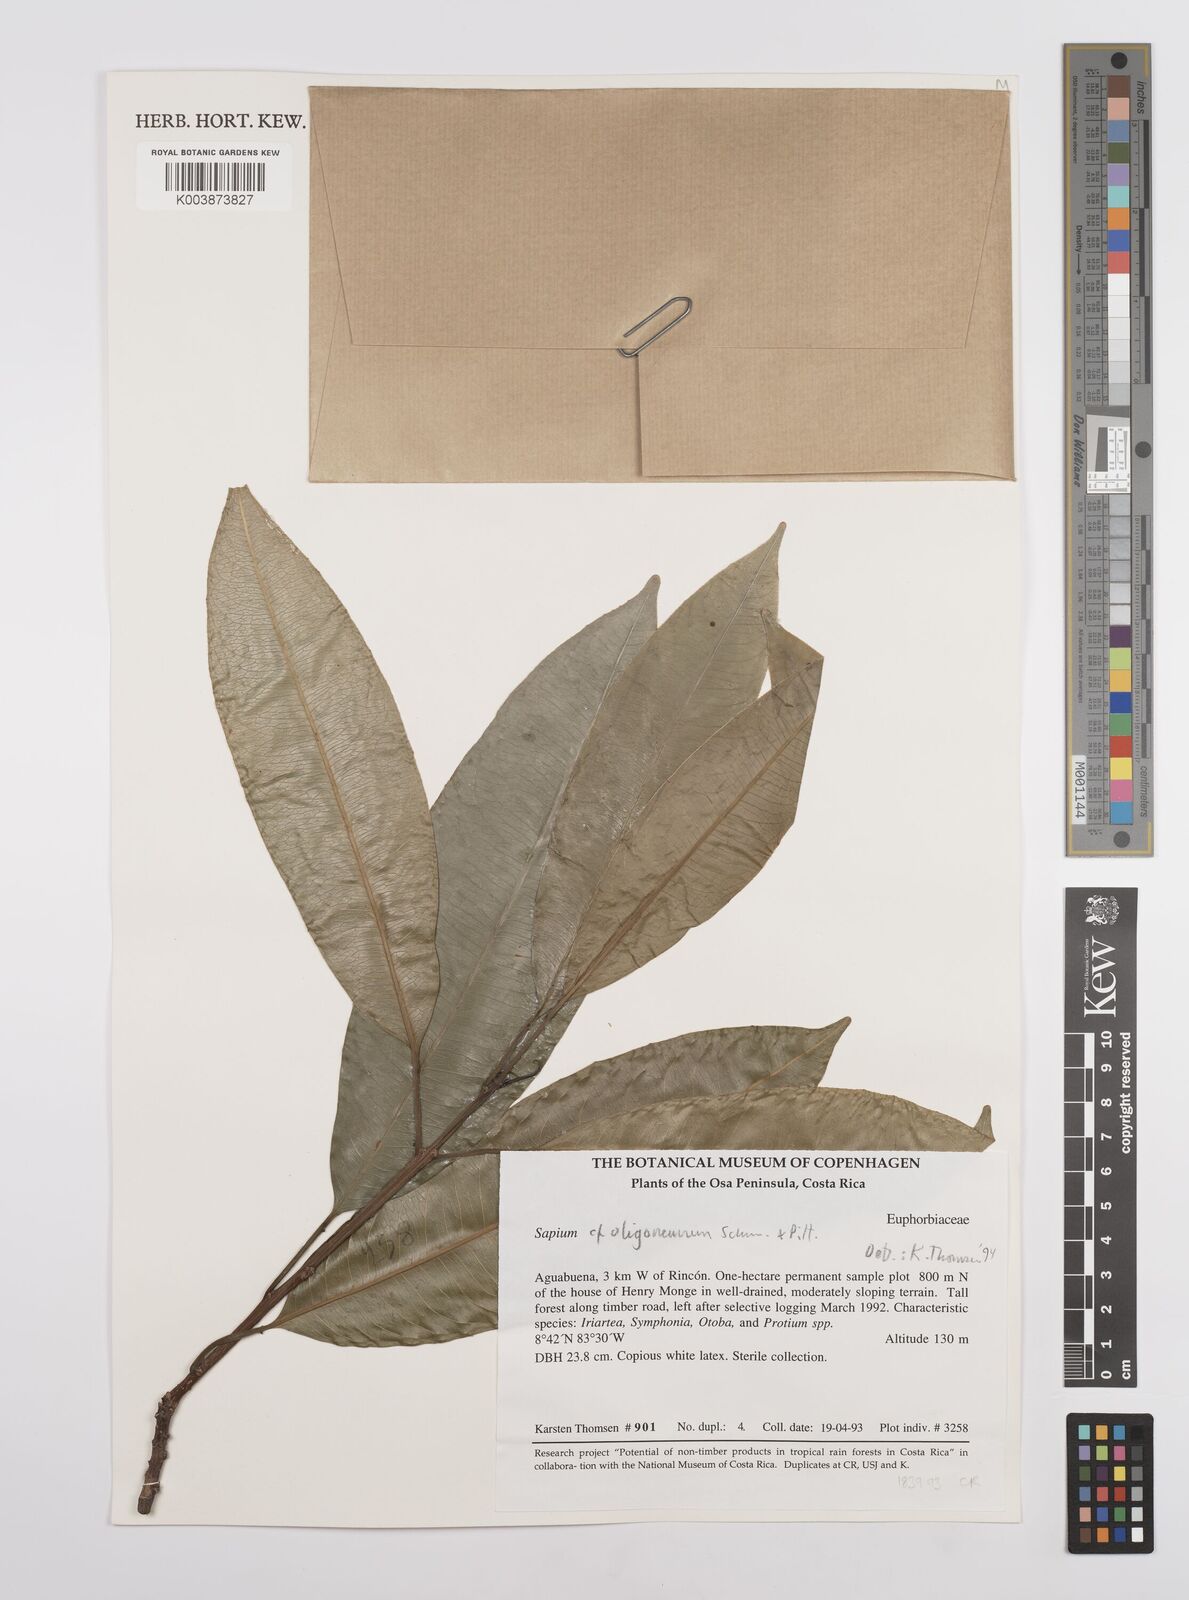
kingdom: Plantae
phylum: Tracheophyta
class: Magnoliopsida
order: Malpighiales
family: Euphorbiaceae
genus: Sapium
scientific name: Sapium glandulosum
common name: Milktree
